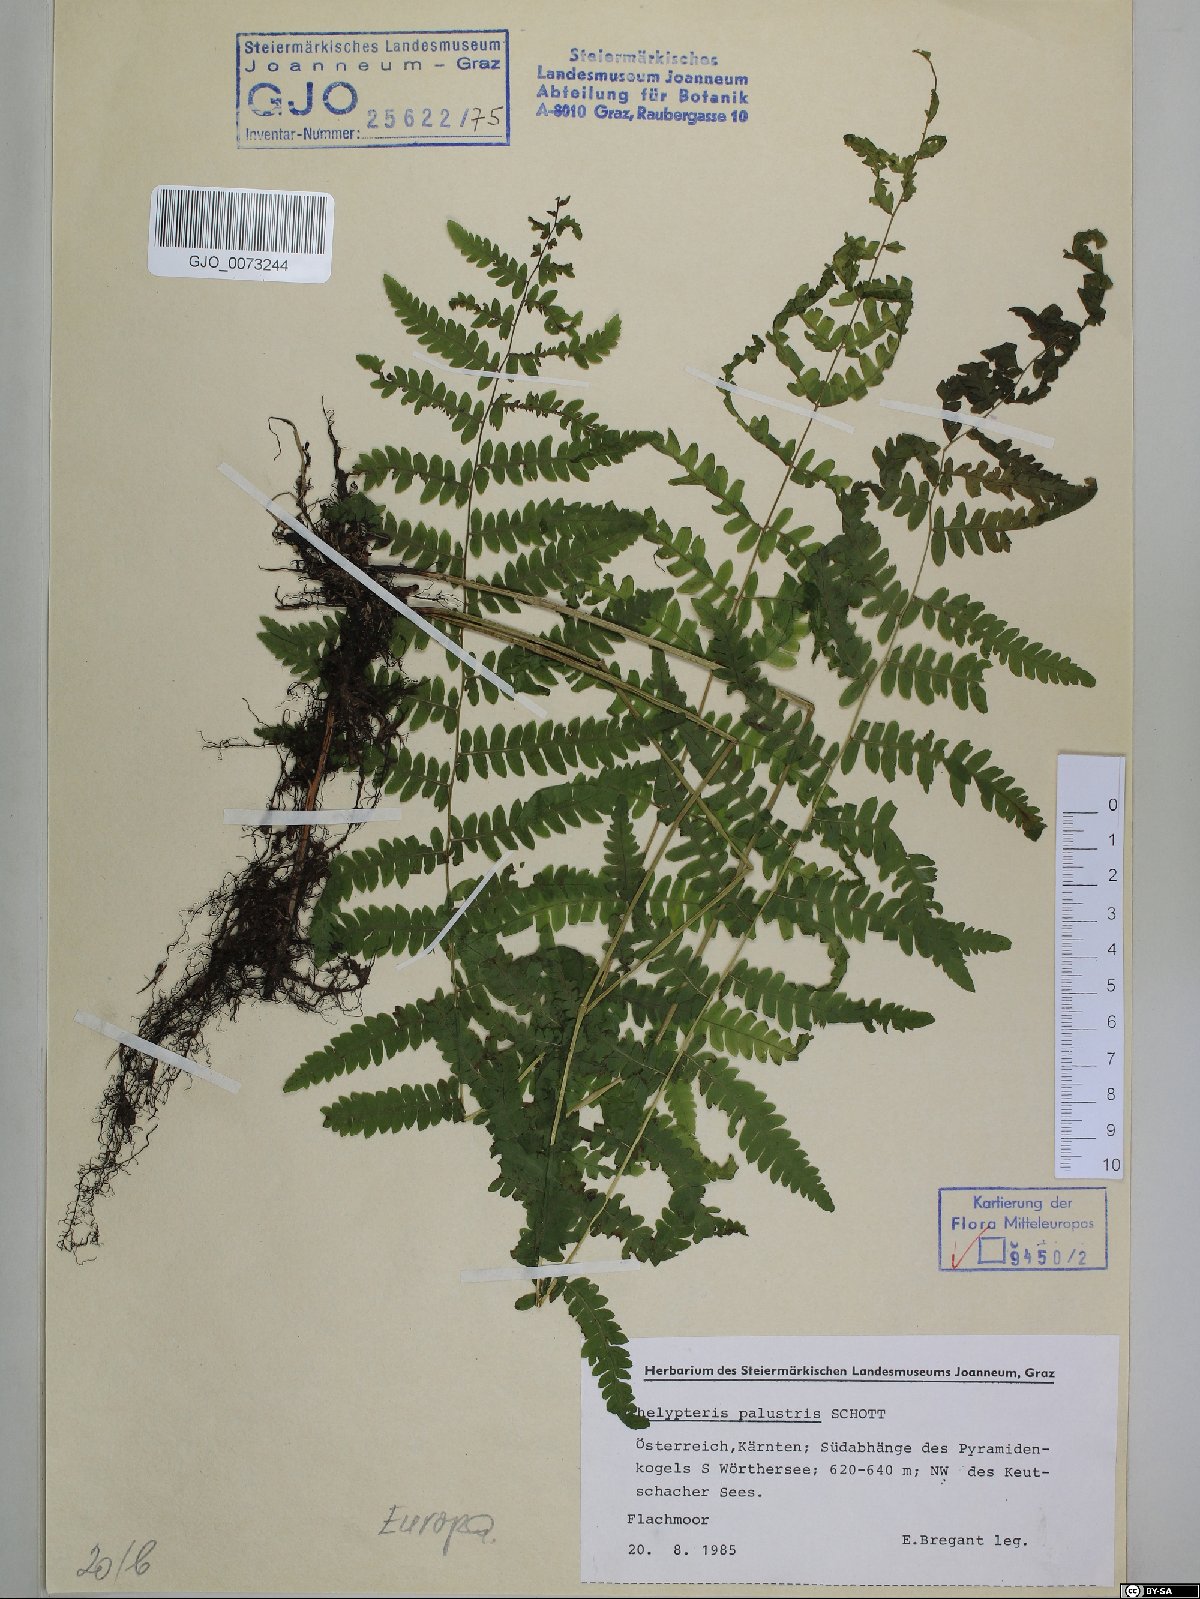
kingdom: Plantae
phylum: Tracheophyta
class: Polypodiopsida
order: Polypodiales
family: Thelypteridaceae
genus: Thelypteris
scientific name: Thelypteris palustris
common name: Marsh fern
